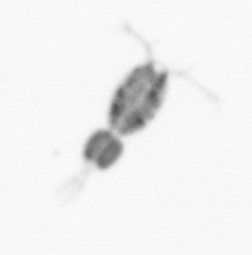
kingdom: Animalia
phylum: Arthropoda
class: Copepoda
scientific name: Copepoda
